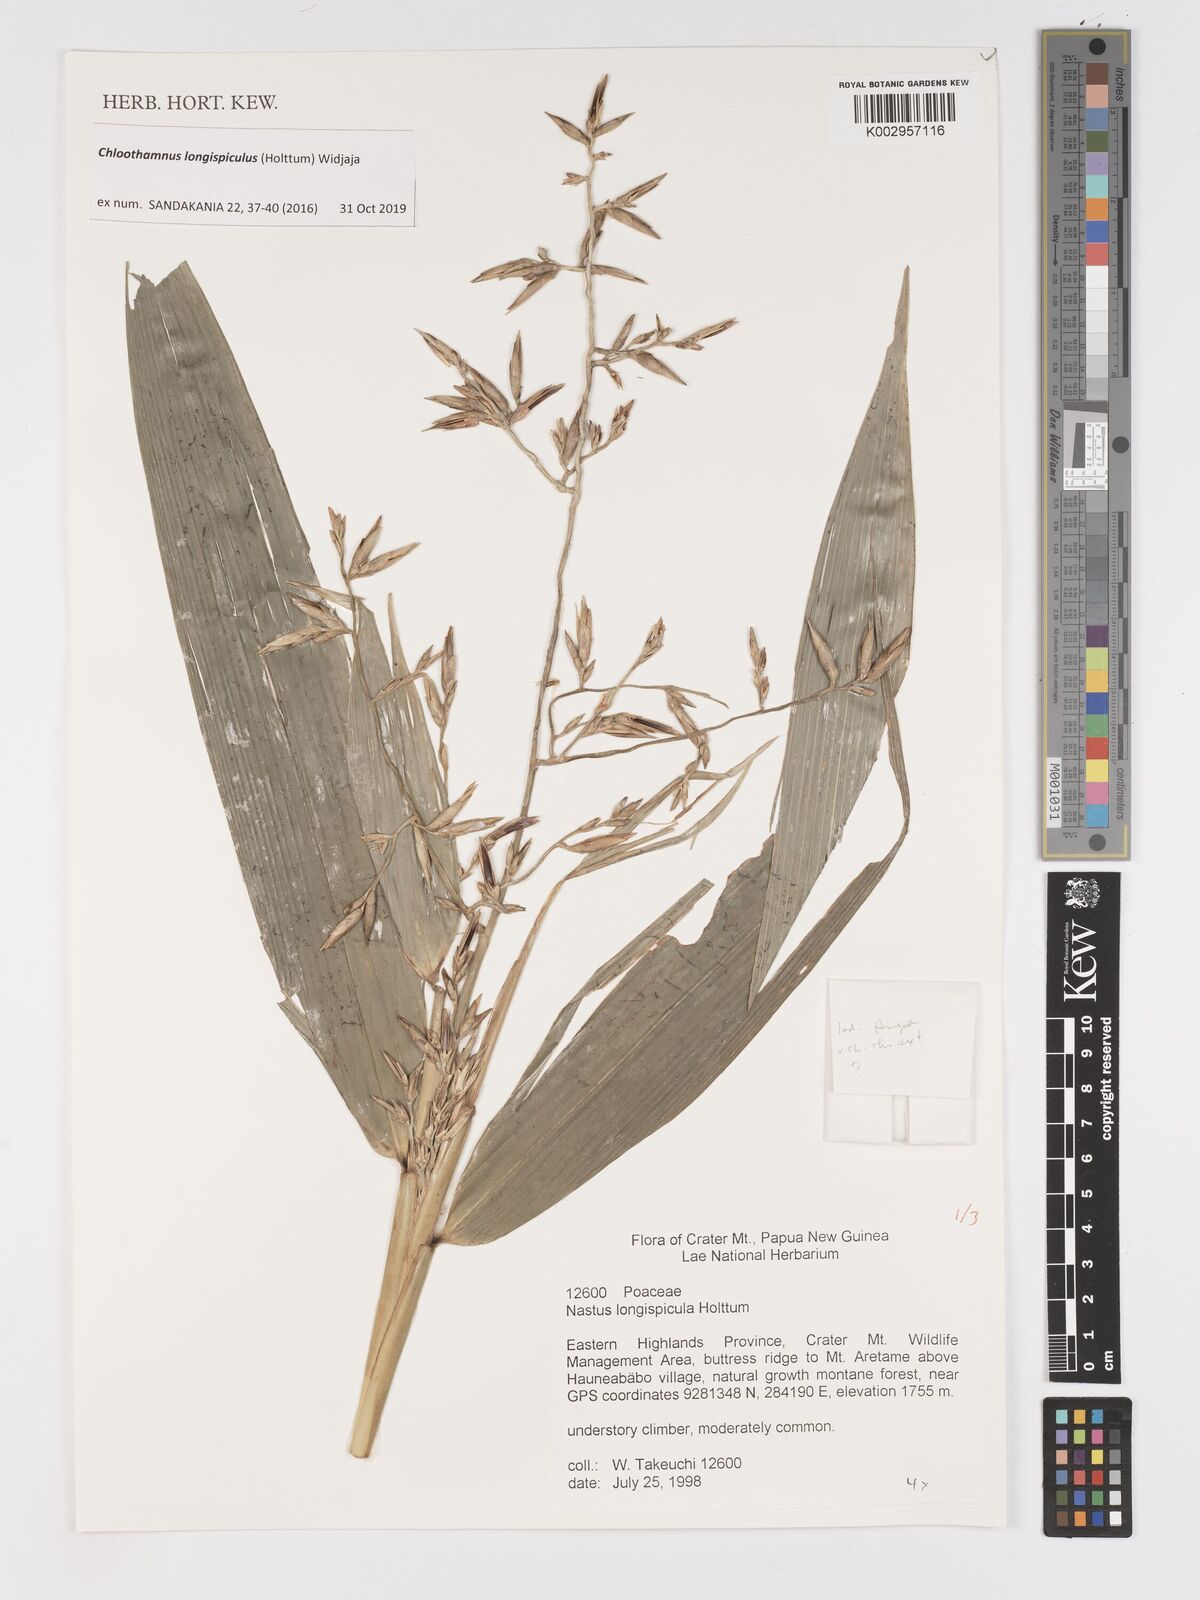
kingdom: Plantae
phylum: Tracheophyta
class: Liliopsida
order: Poales
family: Poaceae
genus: Chloothamnus
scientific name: Chloothamnus longispiculus
